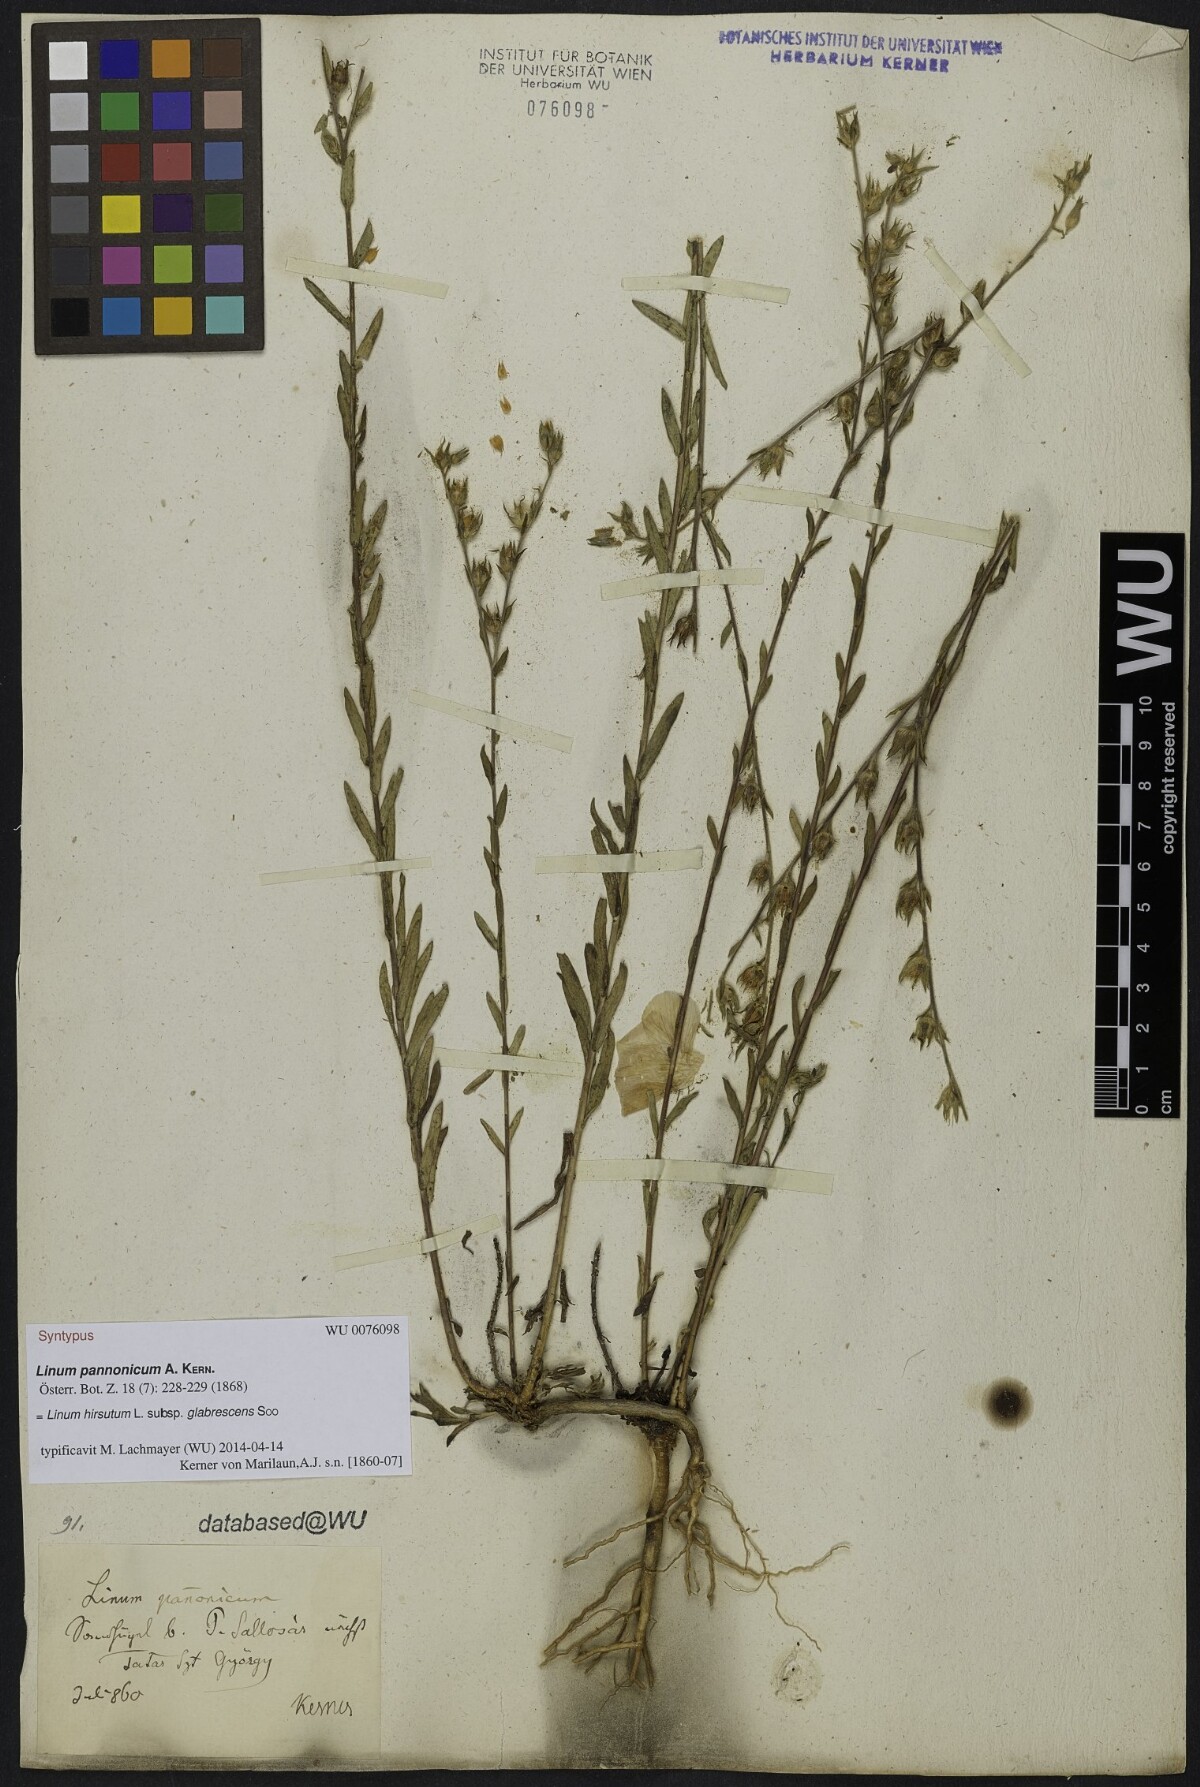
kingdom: Plantae
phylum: Tracheophyta
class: Magnoliopsida
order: Malpighiales
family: Linaceae
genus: Linum
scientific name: Linum hirsutum
